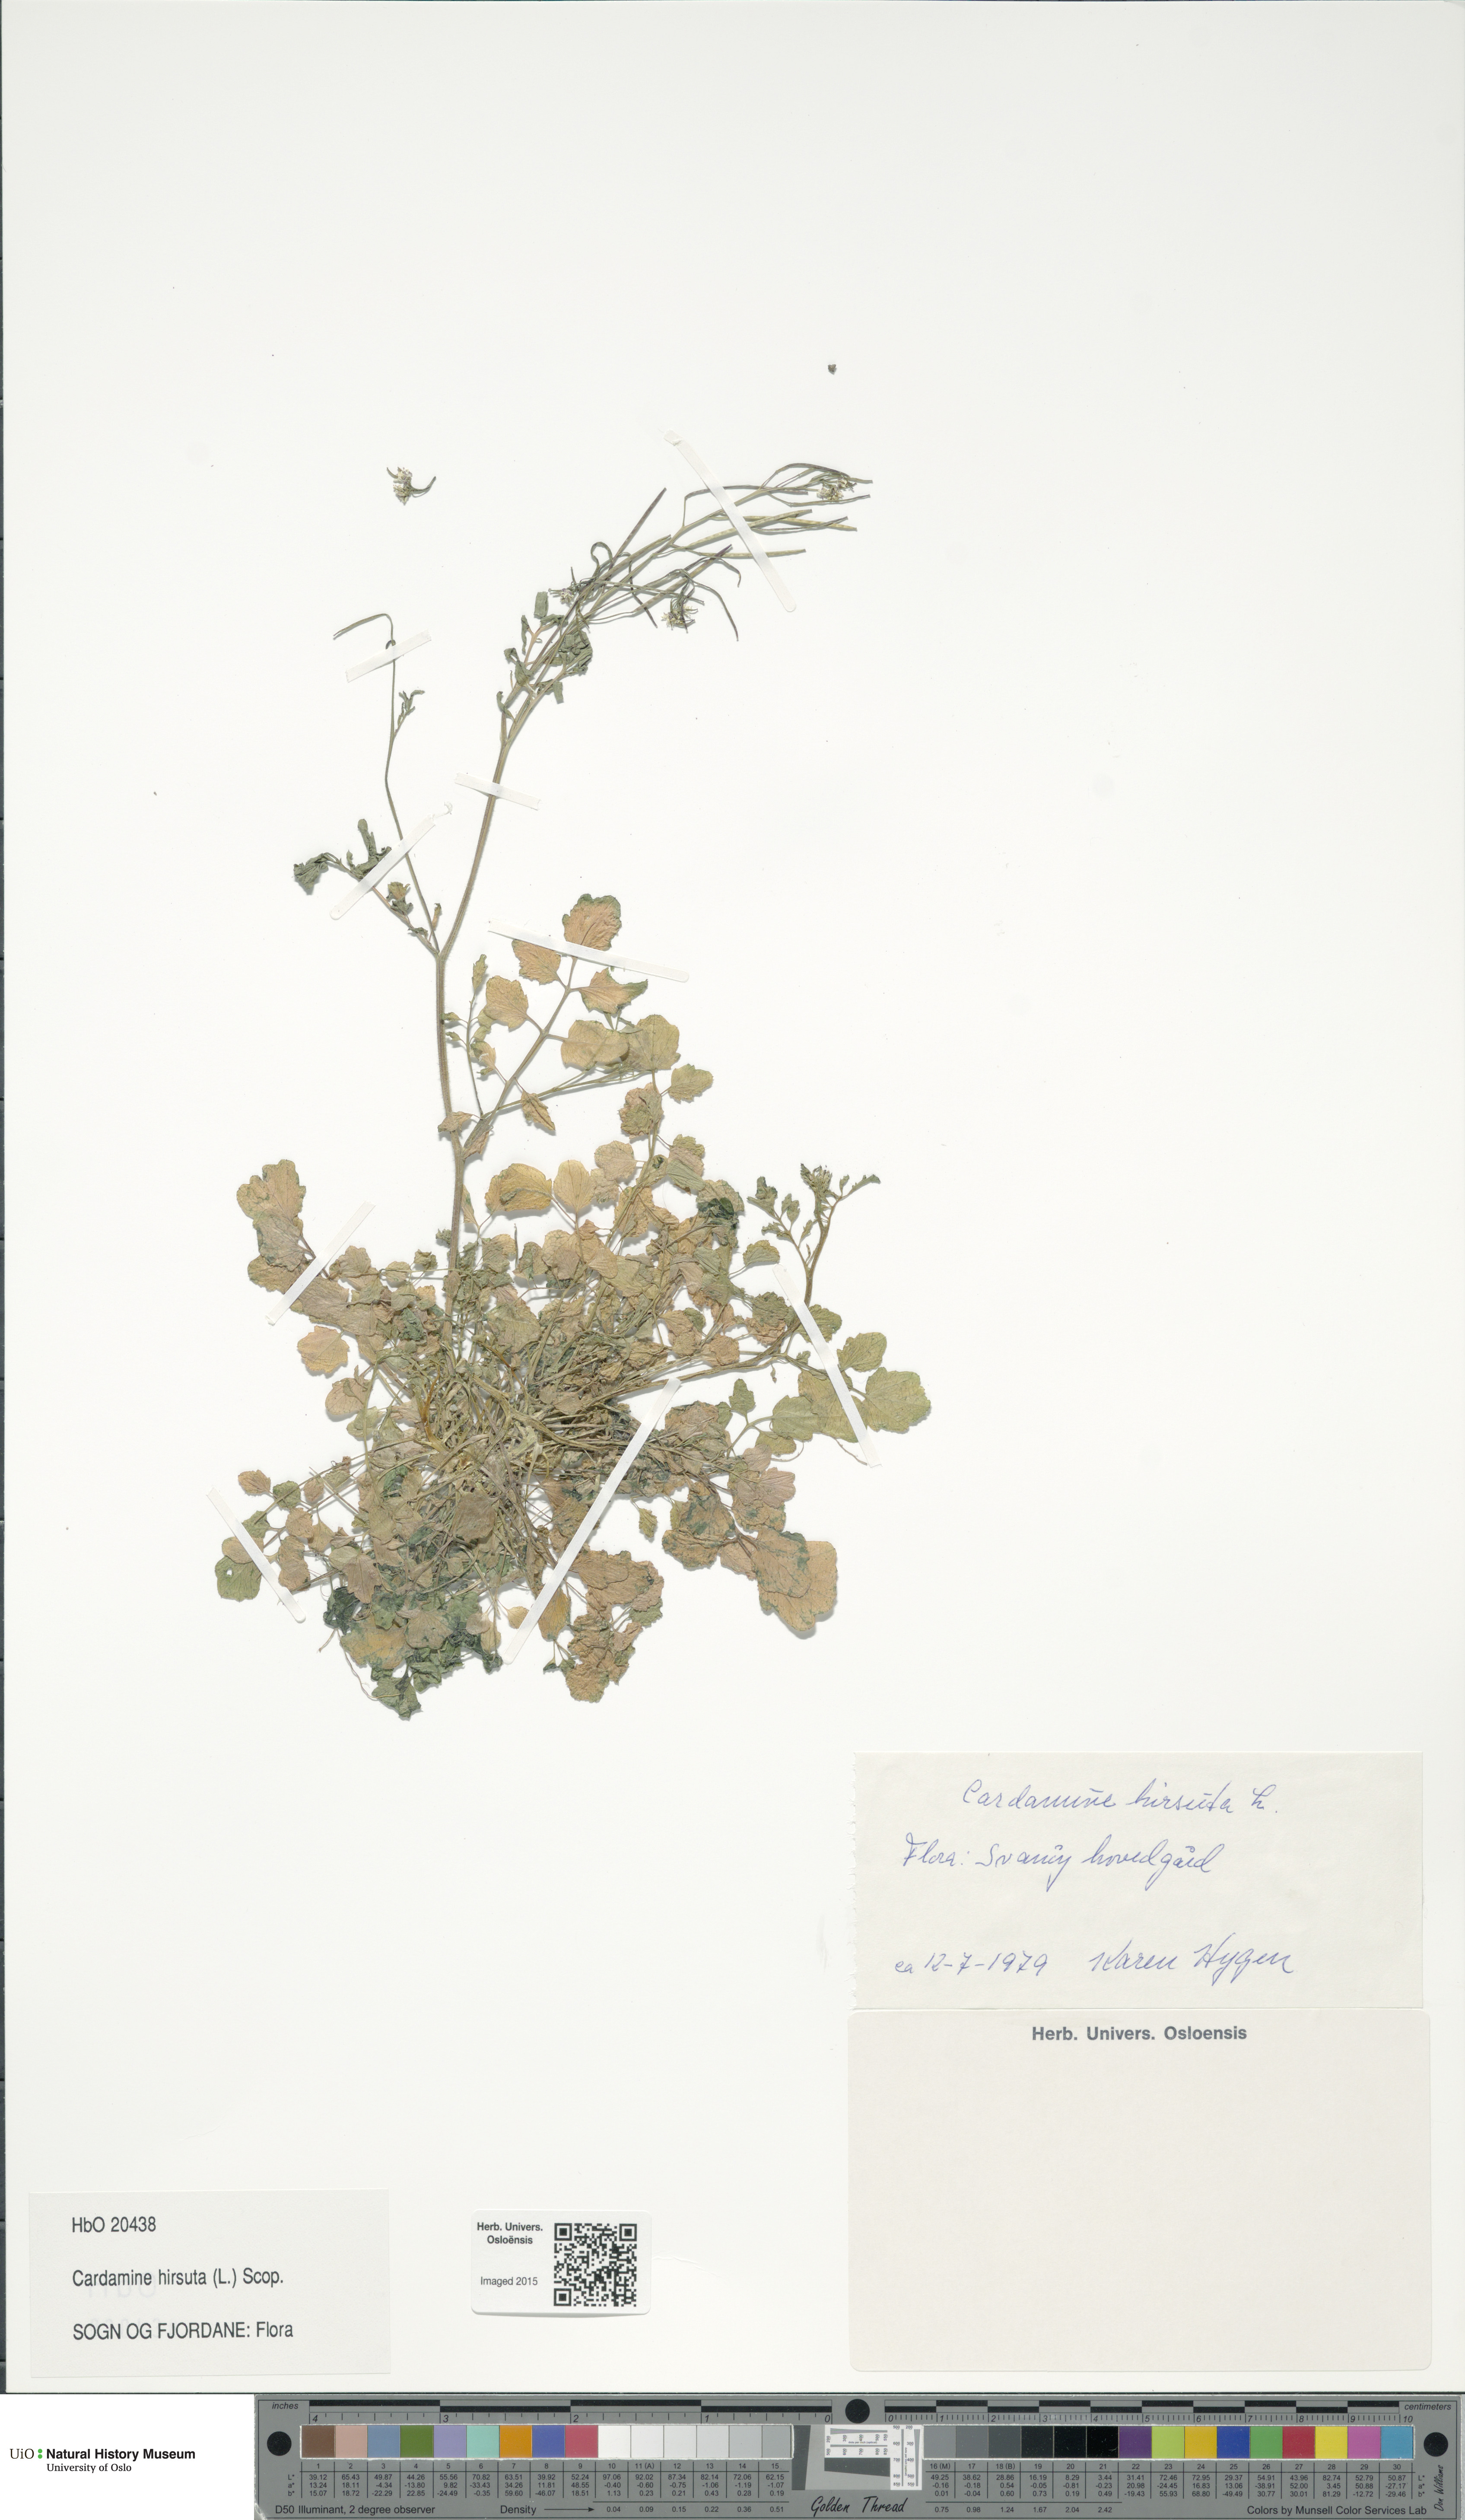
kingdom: Plantae
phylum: Tracheophyta
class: Magnoliopsida
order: Brassicales
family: Brassicaceae
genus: Cardamine
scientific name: Cardamine hirsuta
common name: Hairy bittercress
